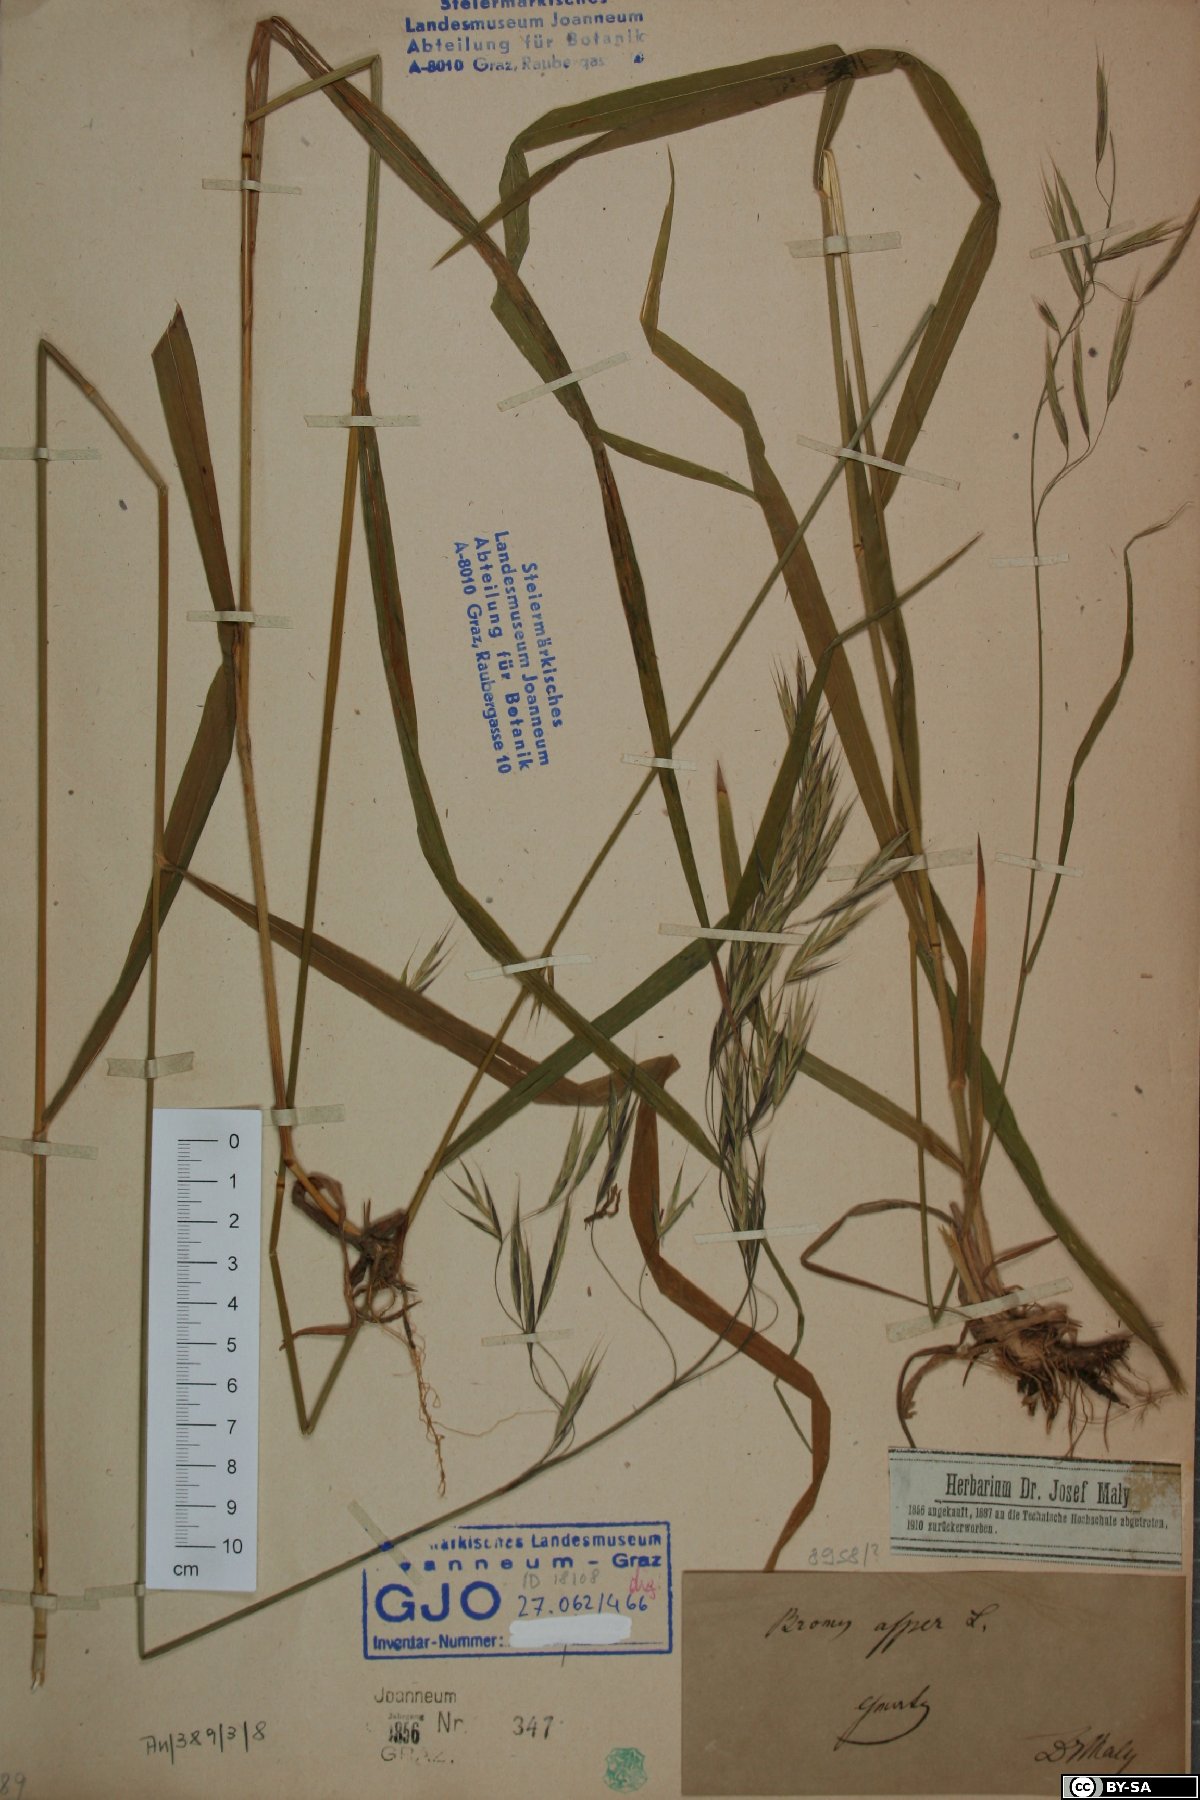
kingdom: Plantae
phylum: Tracheophyta
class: Liliopsida
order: Poales
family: Poaceae
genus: Bromus
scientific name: Bromus ramosus
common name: Hairy brome
